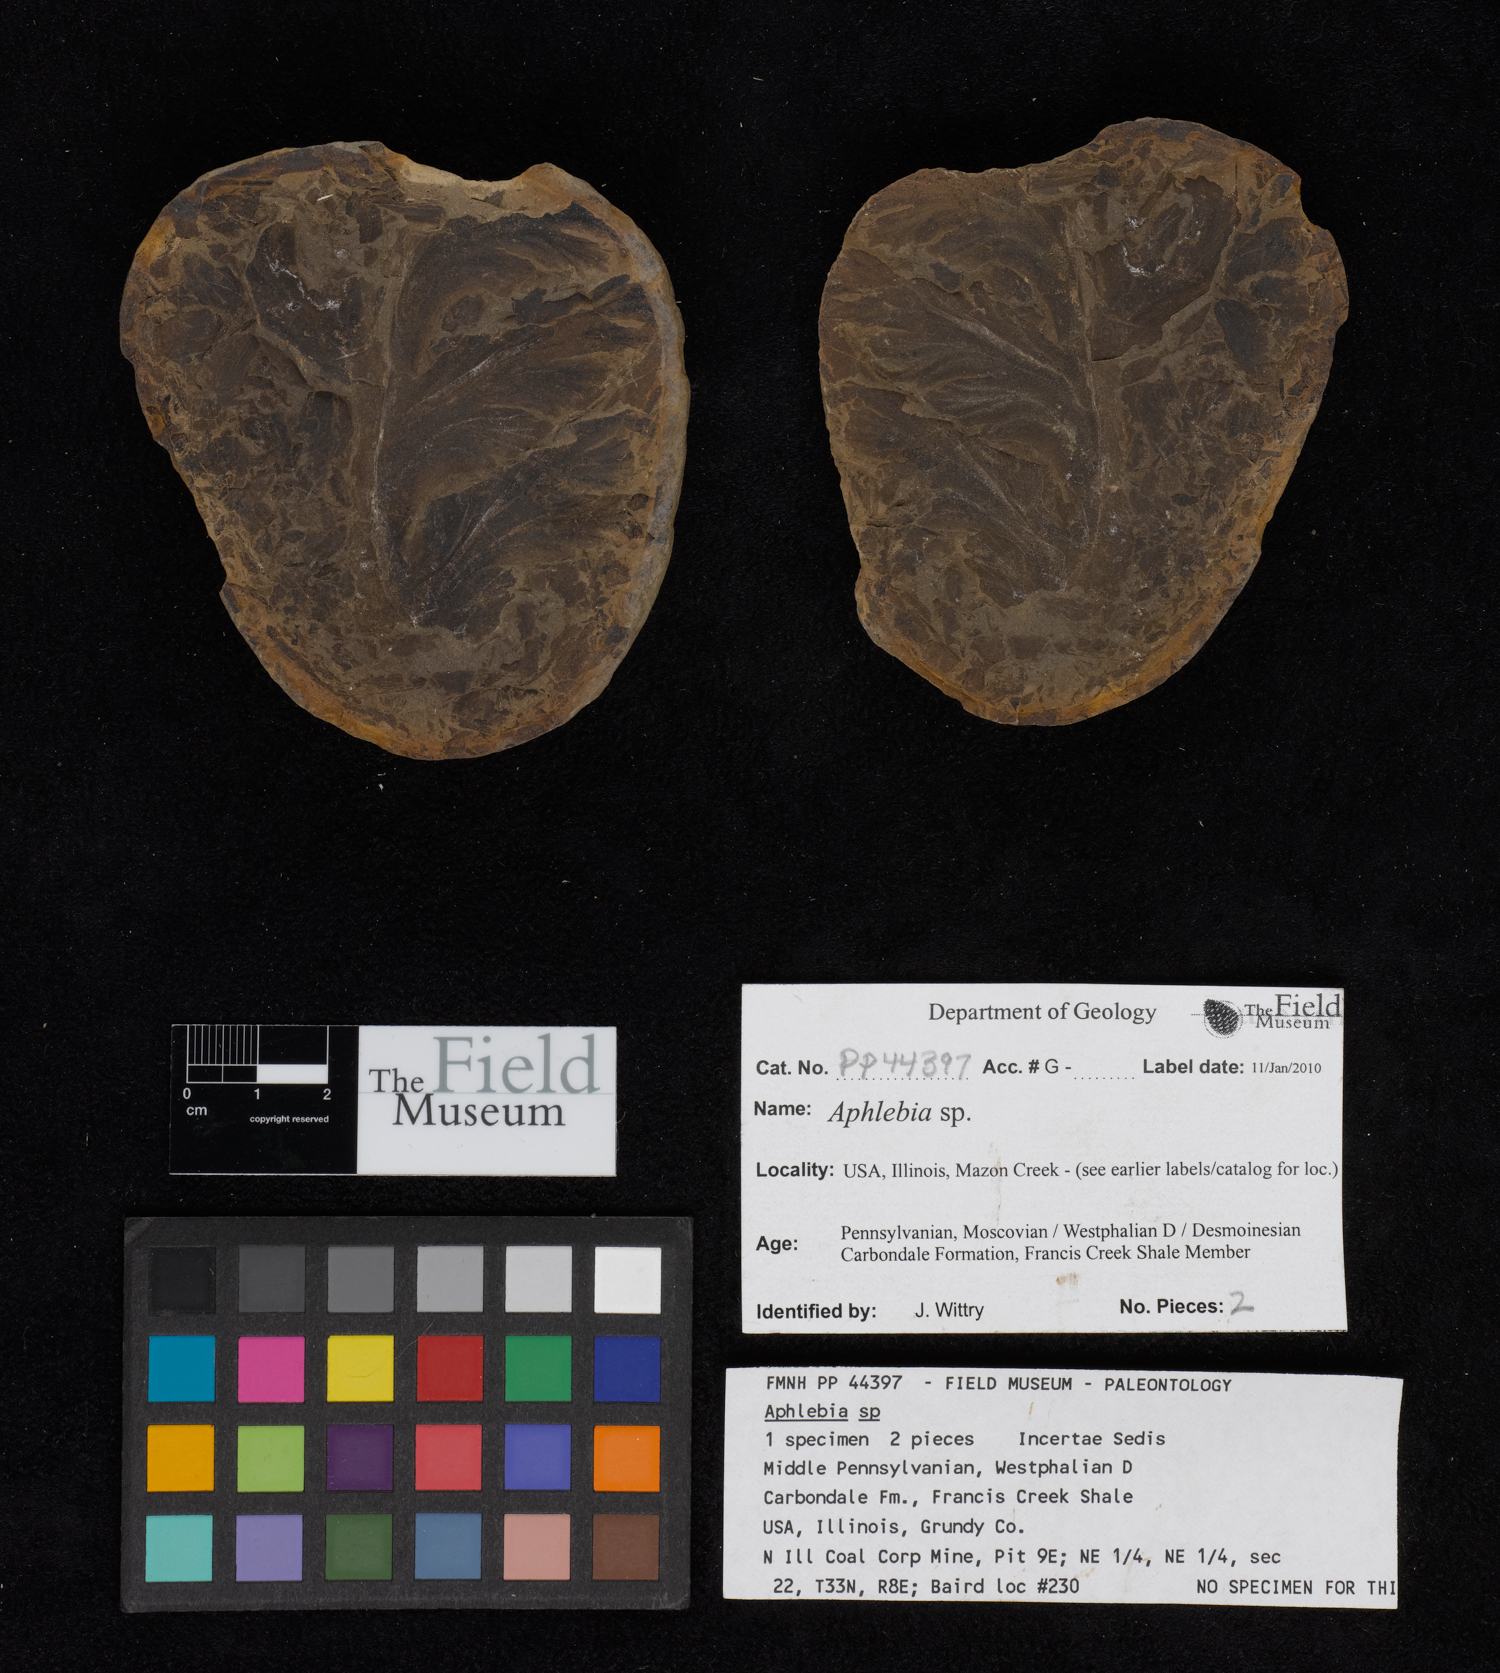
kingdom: Plantae
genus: Rhacophyllum
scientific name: Rhacophyllum
